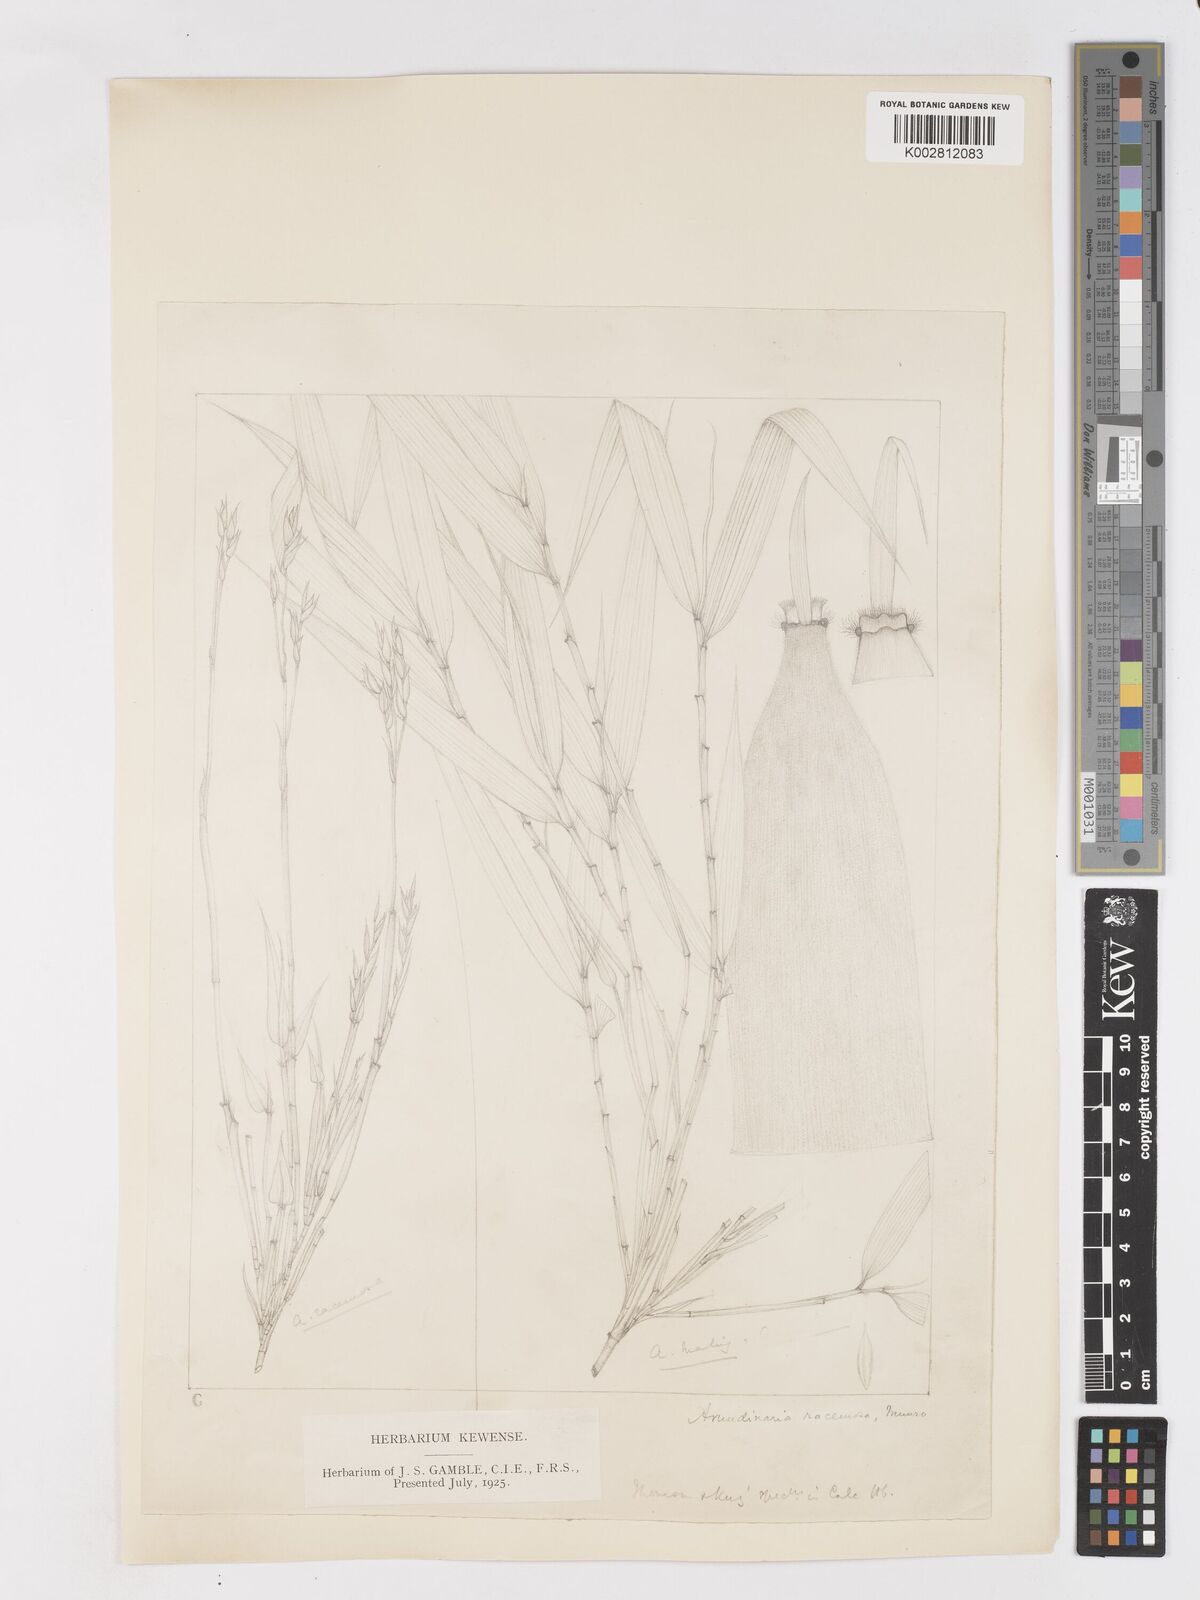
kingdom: Plantae
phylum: Tracheophyta
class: Liliopsida
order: Poales
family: Poaceae
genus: Sarocalamus
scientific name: Sarocalamus racemosus
